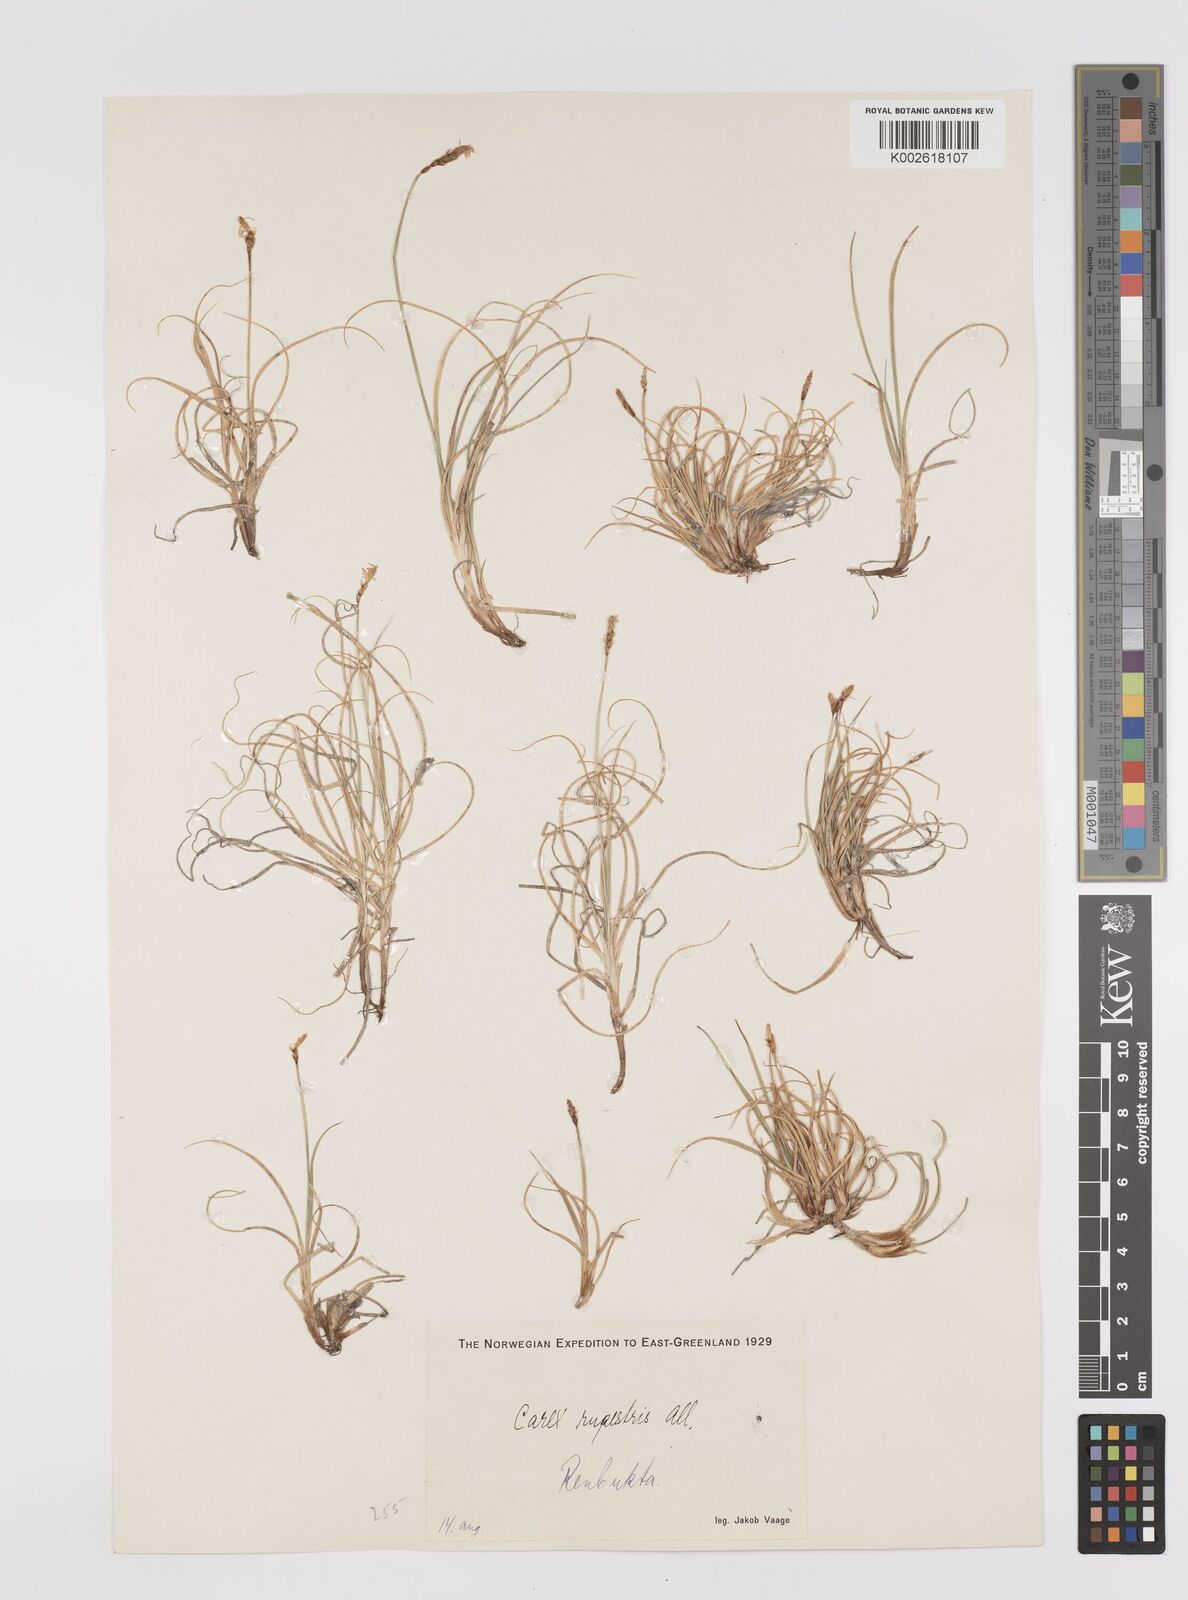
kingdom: Plantae
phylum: Tracheophyta
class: Liliopsida
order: Poales
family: Cyperaceae
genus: Carex
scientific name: Carex rupestris
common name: Rock sedge
